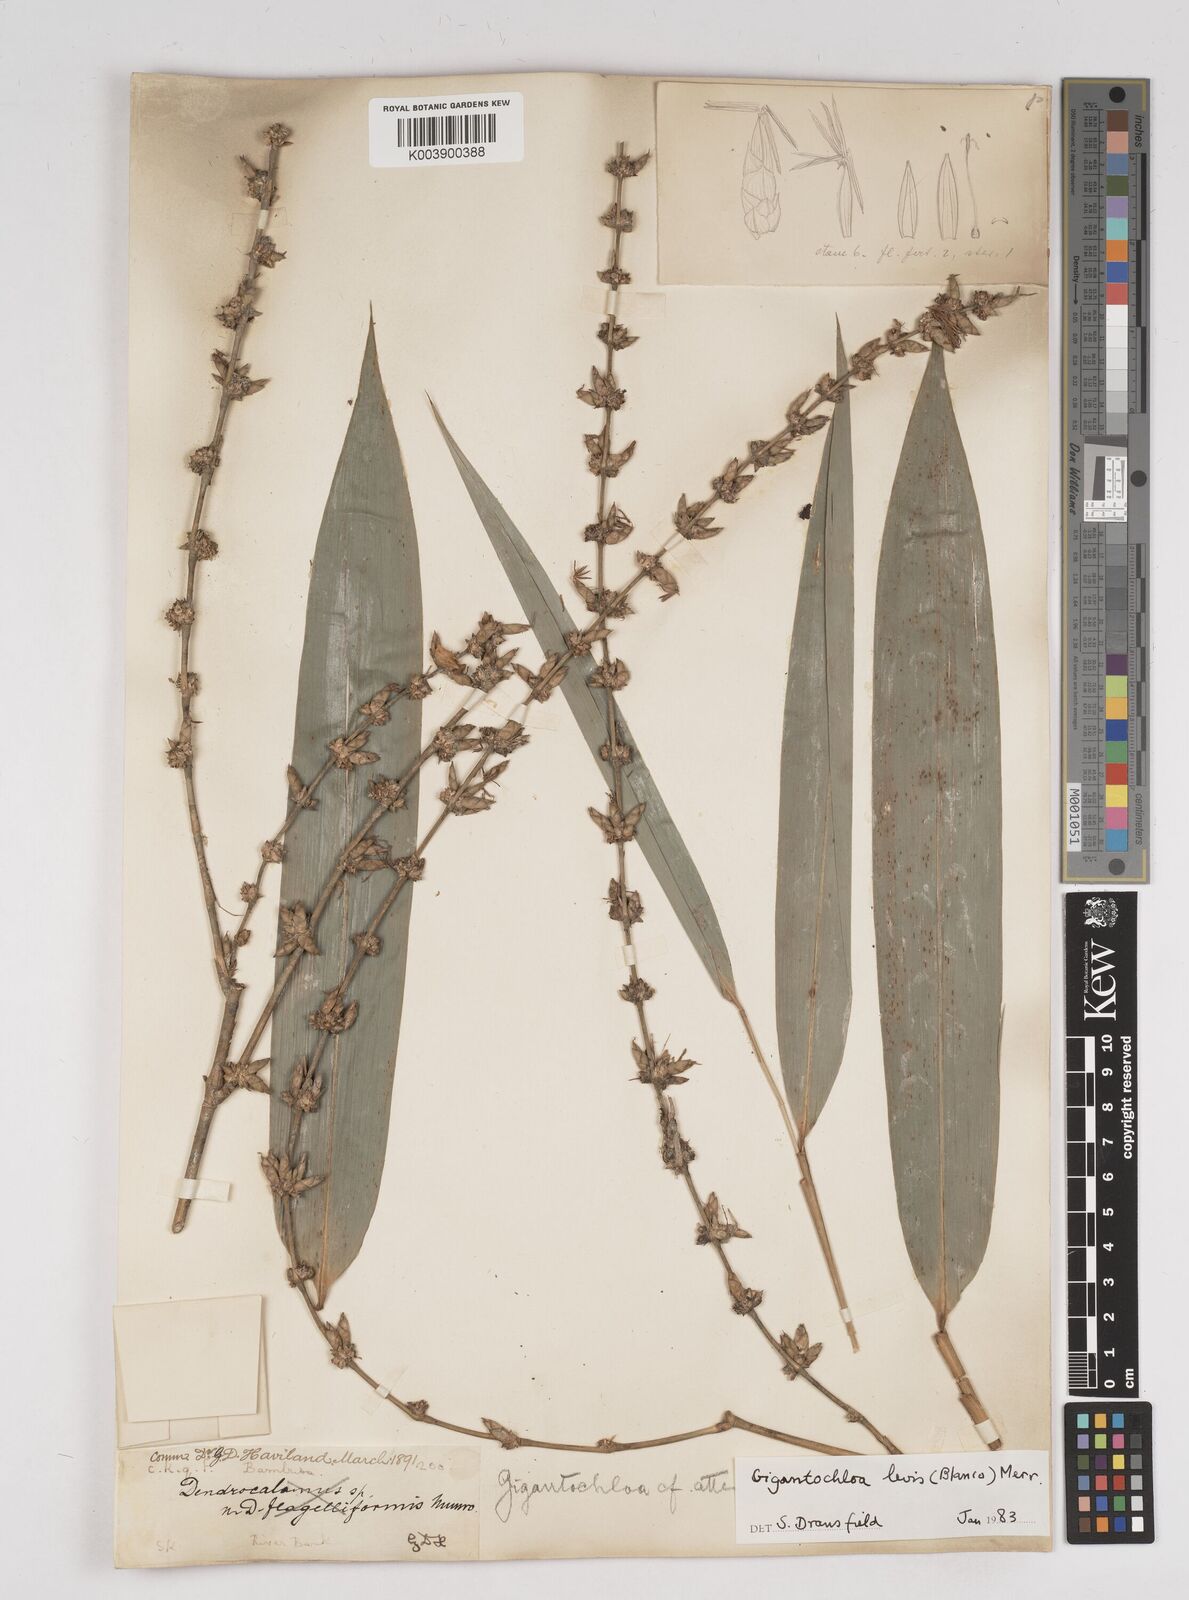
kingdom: Plantae
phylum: Tracheophyta
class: Liliopsida
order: Poales
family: Poaceae
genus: Gigantochloa
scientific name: Gigantochloa levis
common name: Smooth-shoot gigantochloa
